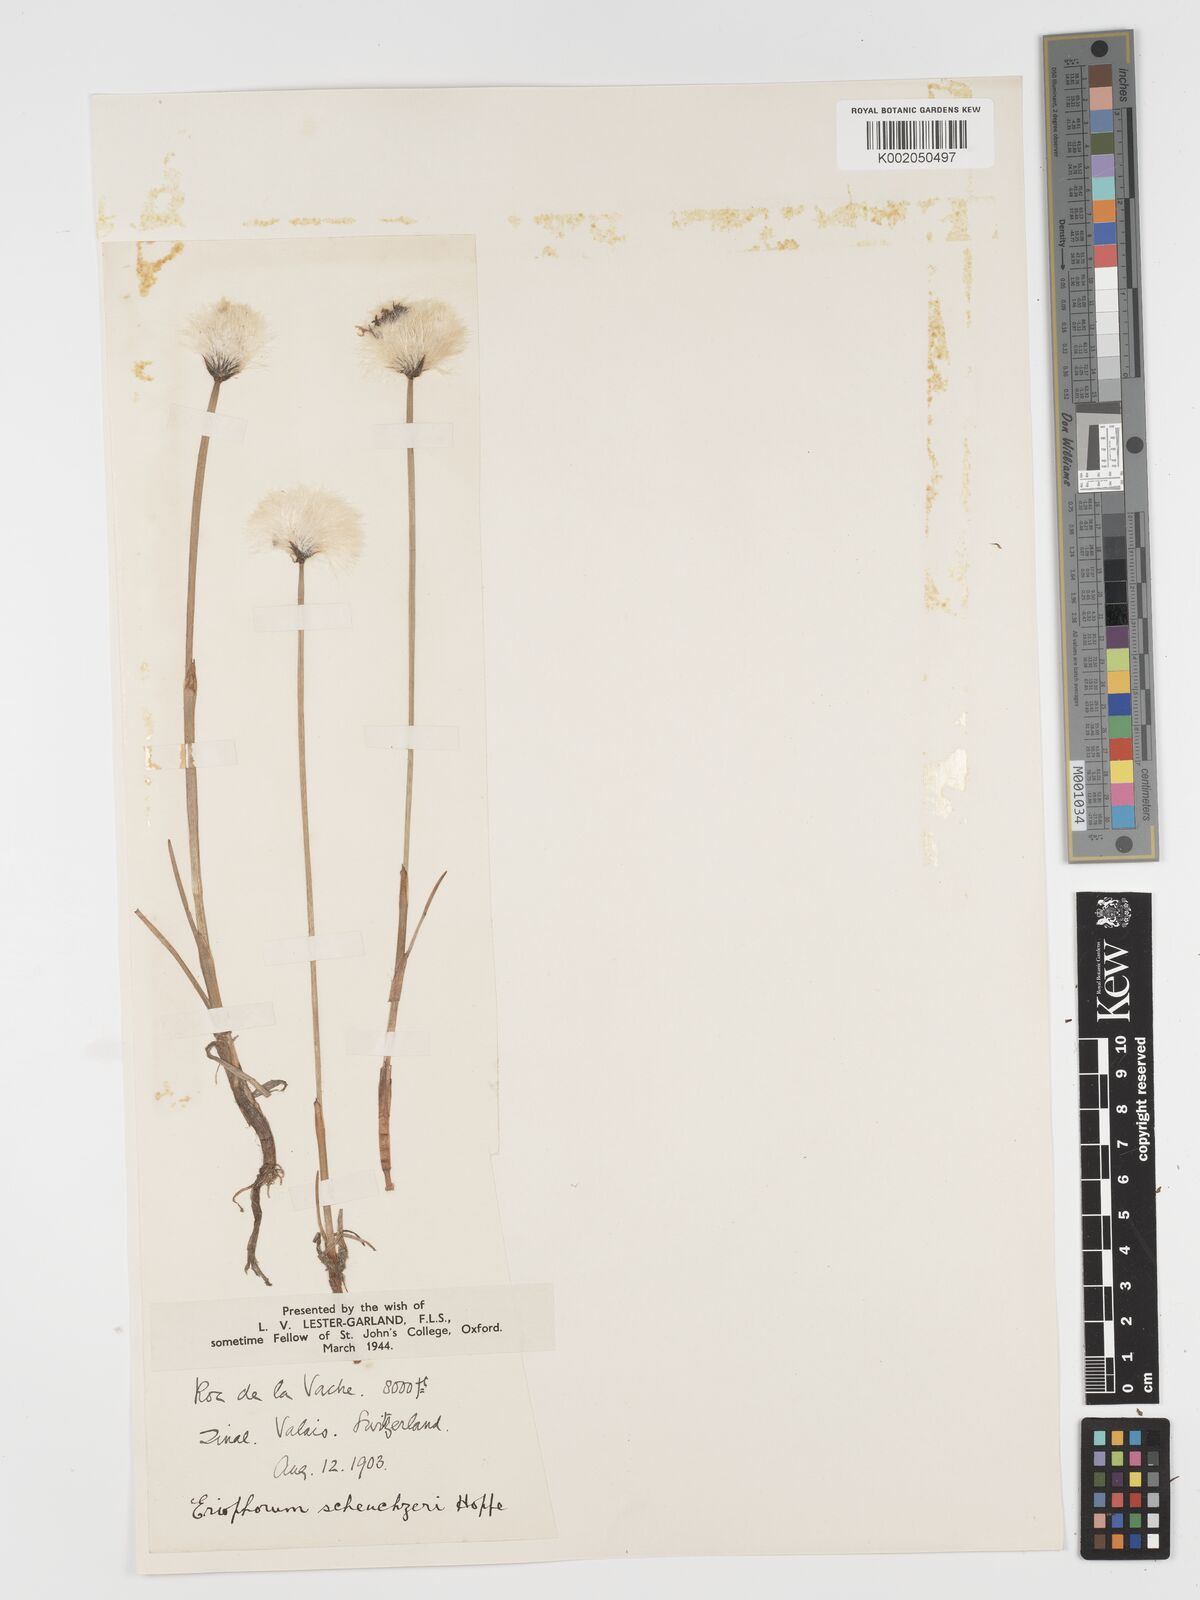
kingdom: Plantae
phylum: Tracheophyta
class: Liliopsida
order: Poales
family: Cyperaceae
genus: Eriophorum
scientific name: Eriophorum scheuchzeri
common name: Scheuchzer's cottongrass
